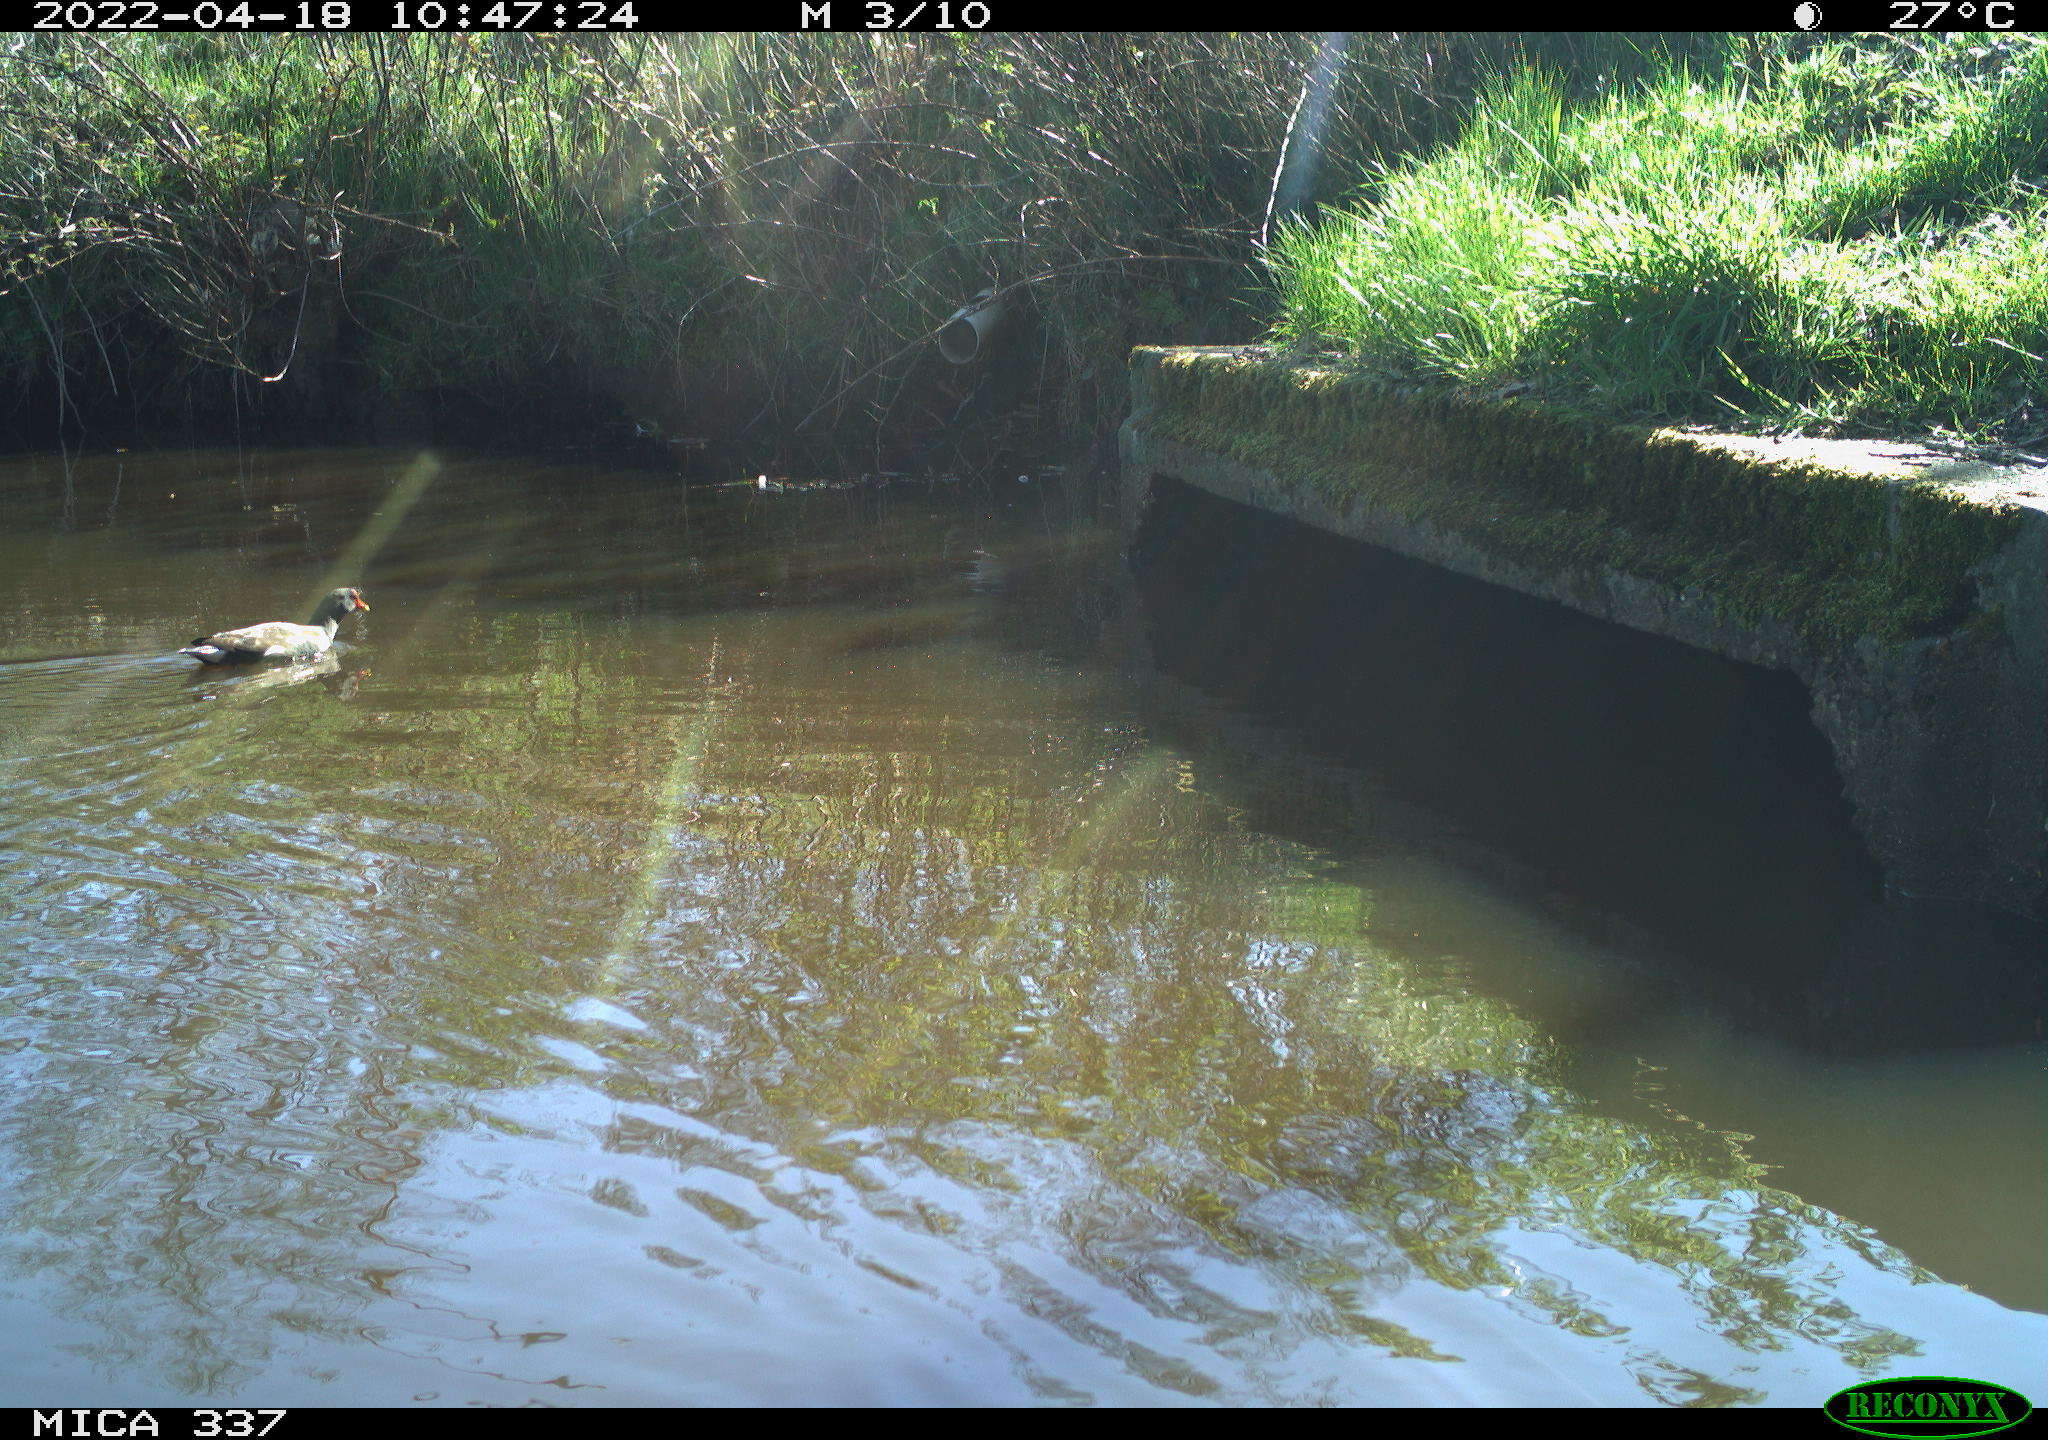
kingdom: Animalia
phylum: Chordata
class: Aves
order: Gruiformes
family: Rallidae
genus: Gallinula
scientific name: Gallinula chloropus
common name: Common moorhen
